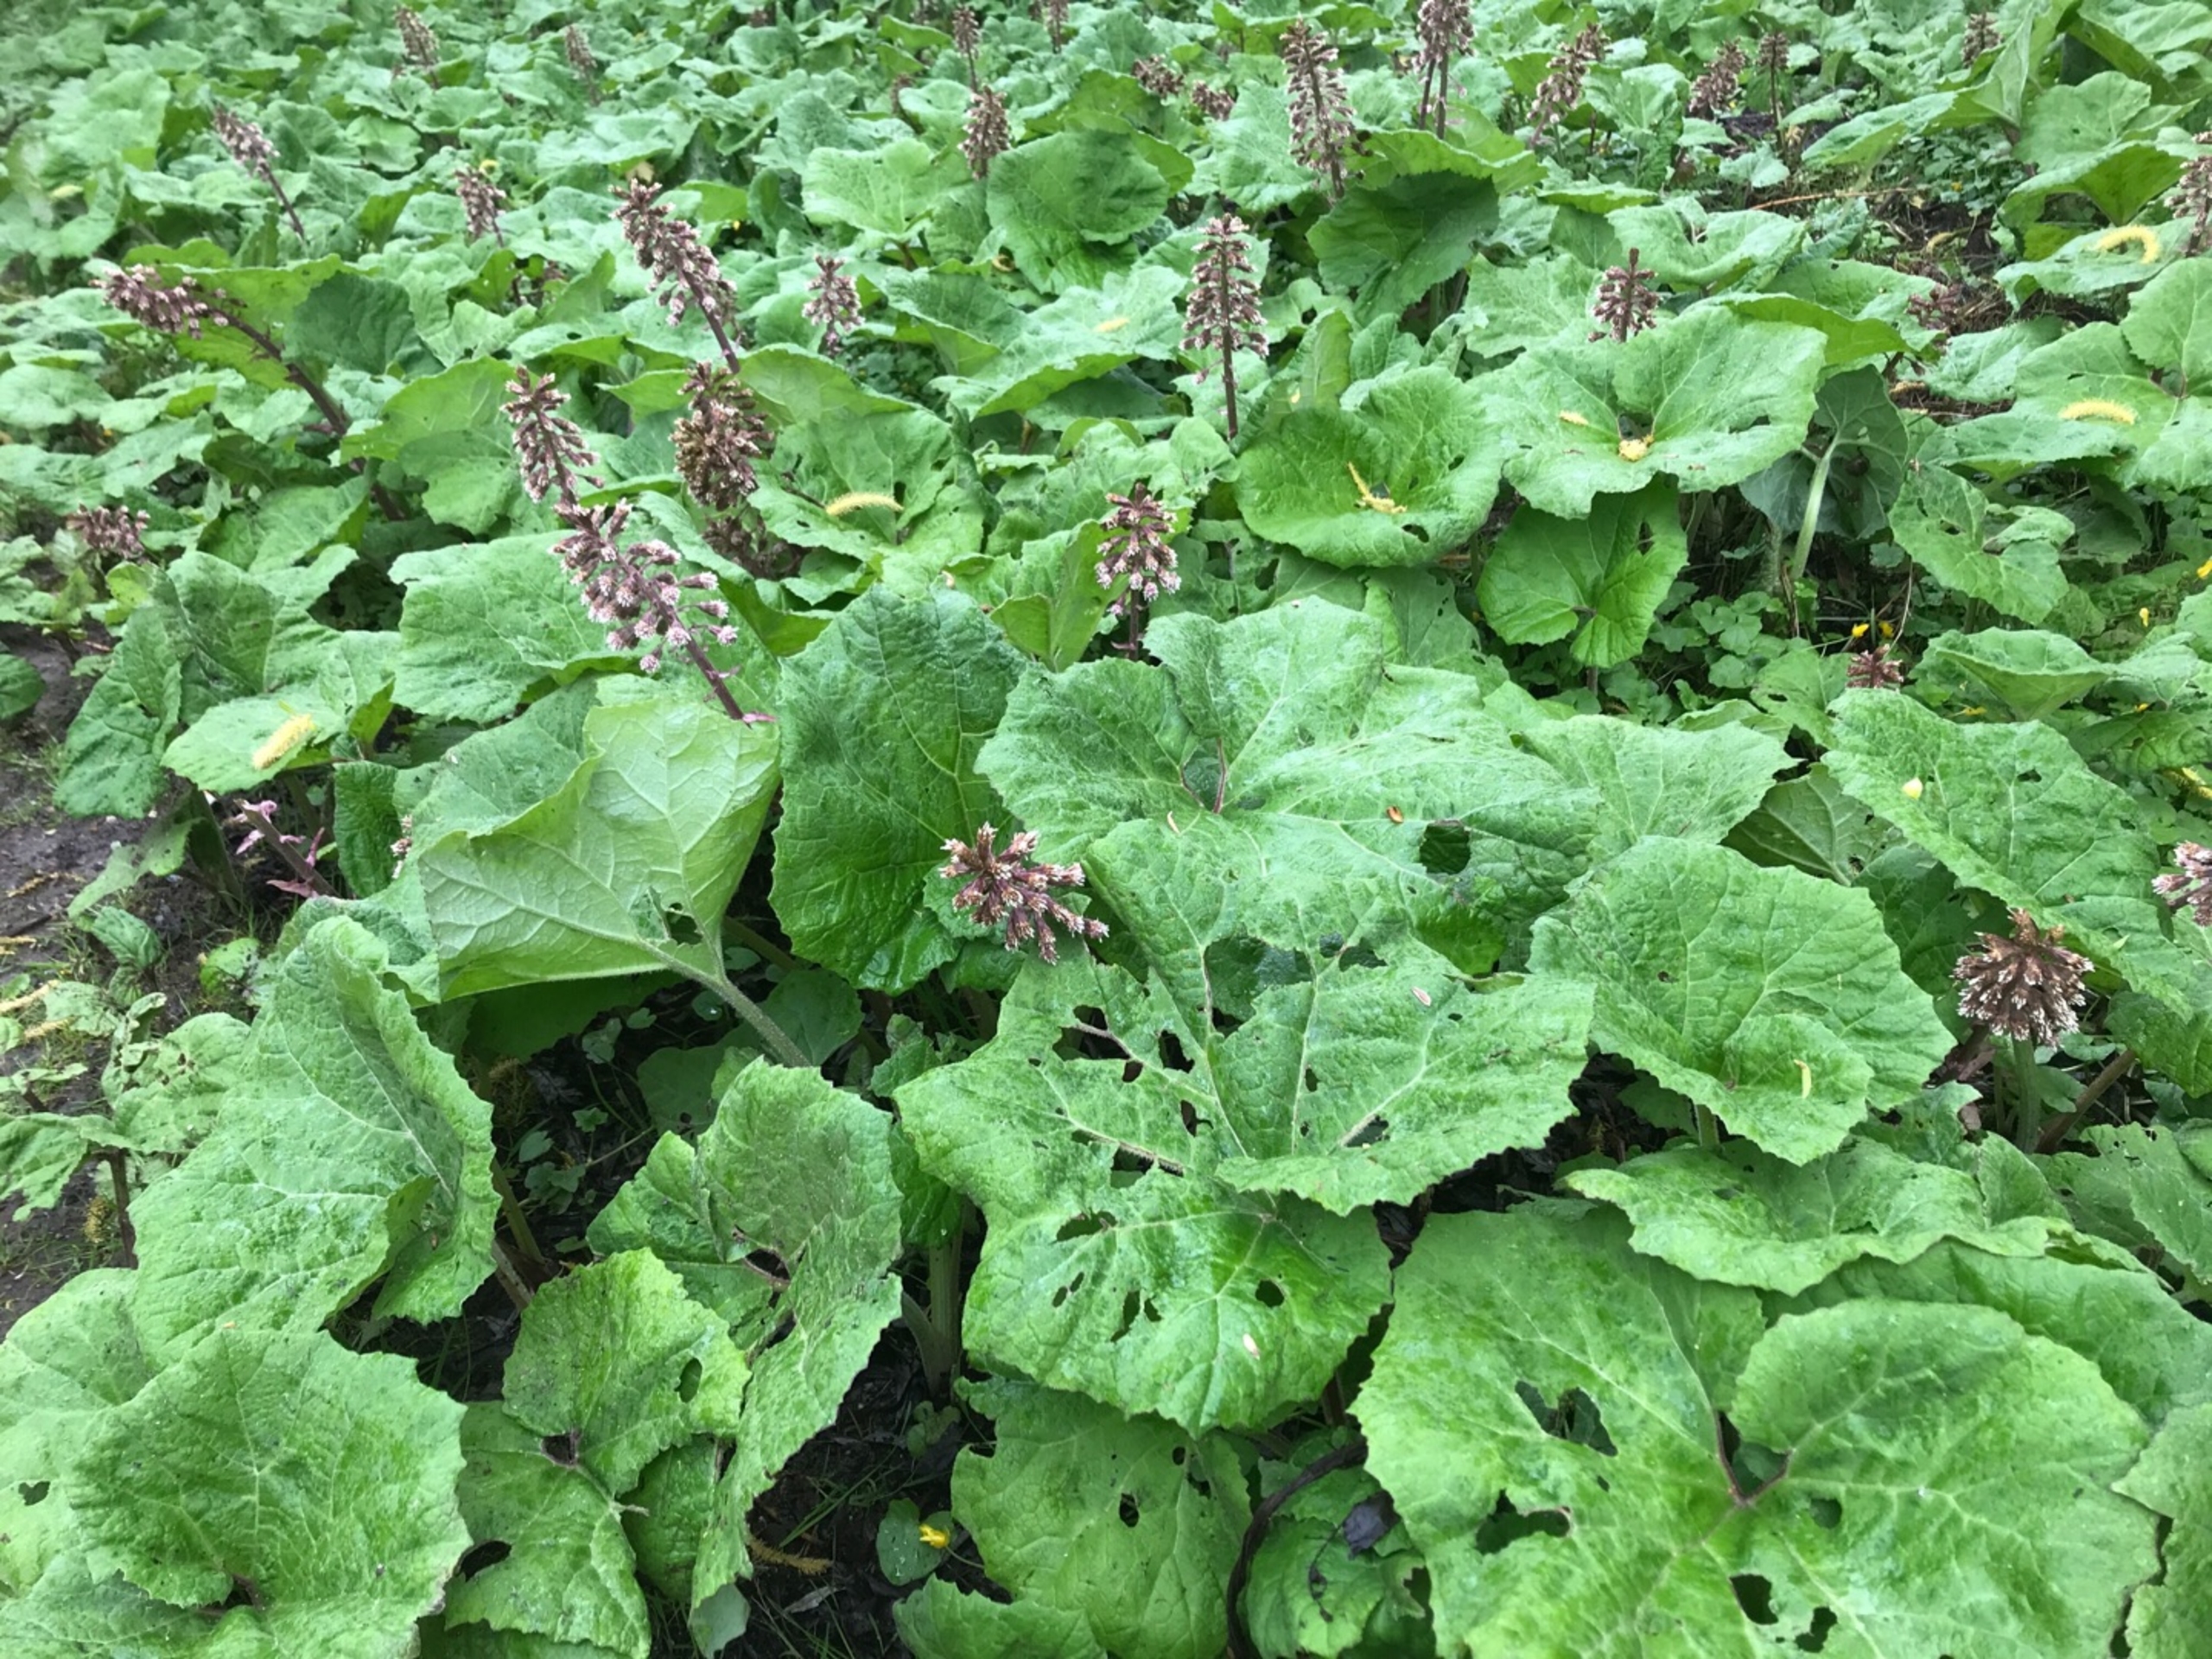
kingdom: Plantae
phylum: Tracheophyta
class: Magnoliopsida
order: Asterales
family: Asteraceae
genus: Petasites
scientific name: Petasites hybridus
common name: Rød hestehov
